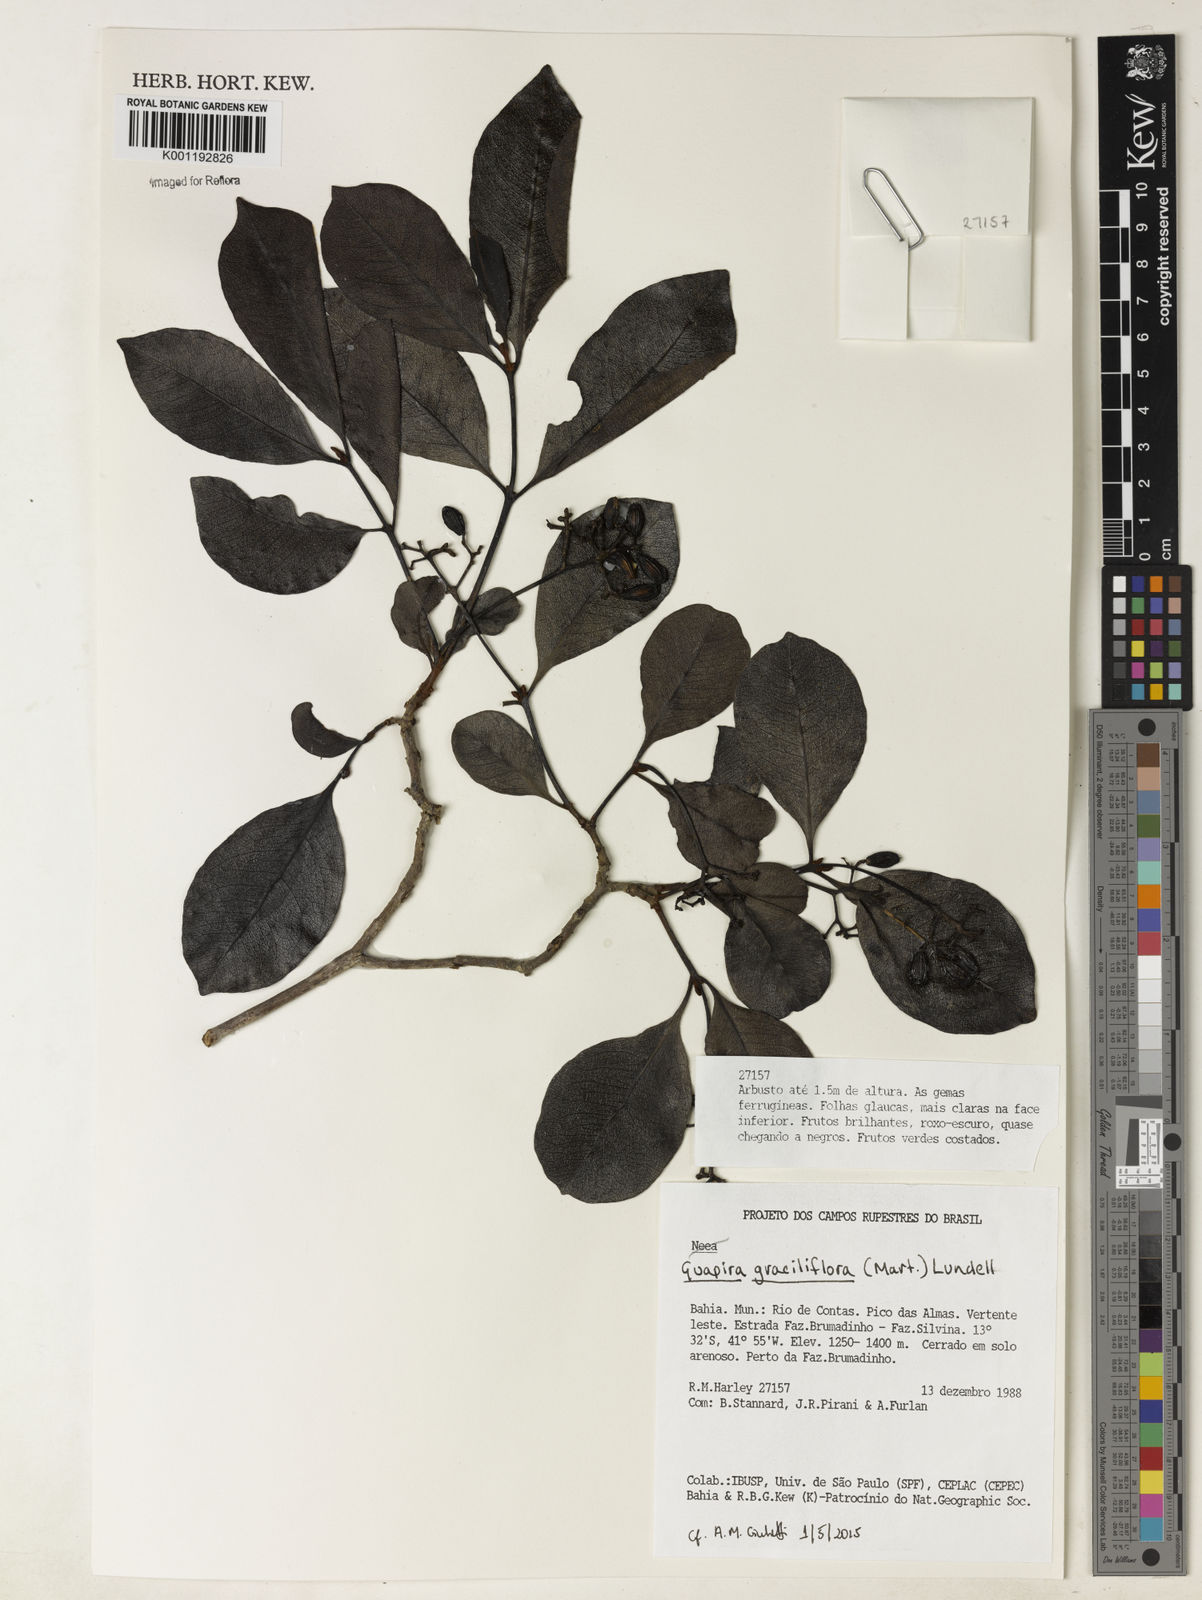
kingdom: Plantae
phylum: Tracheophyta
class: Magnoliopsida
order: Caryophyllales
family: Nyctaginaceae
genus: Guapira
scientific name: Guapira graciliflora
